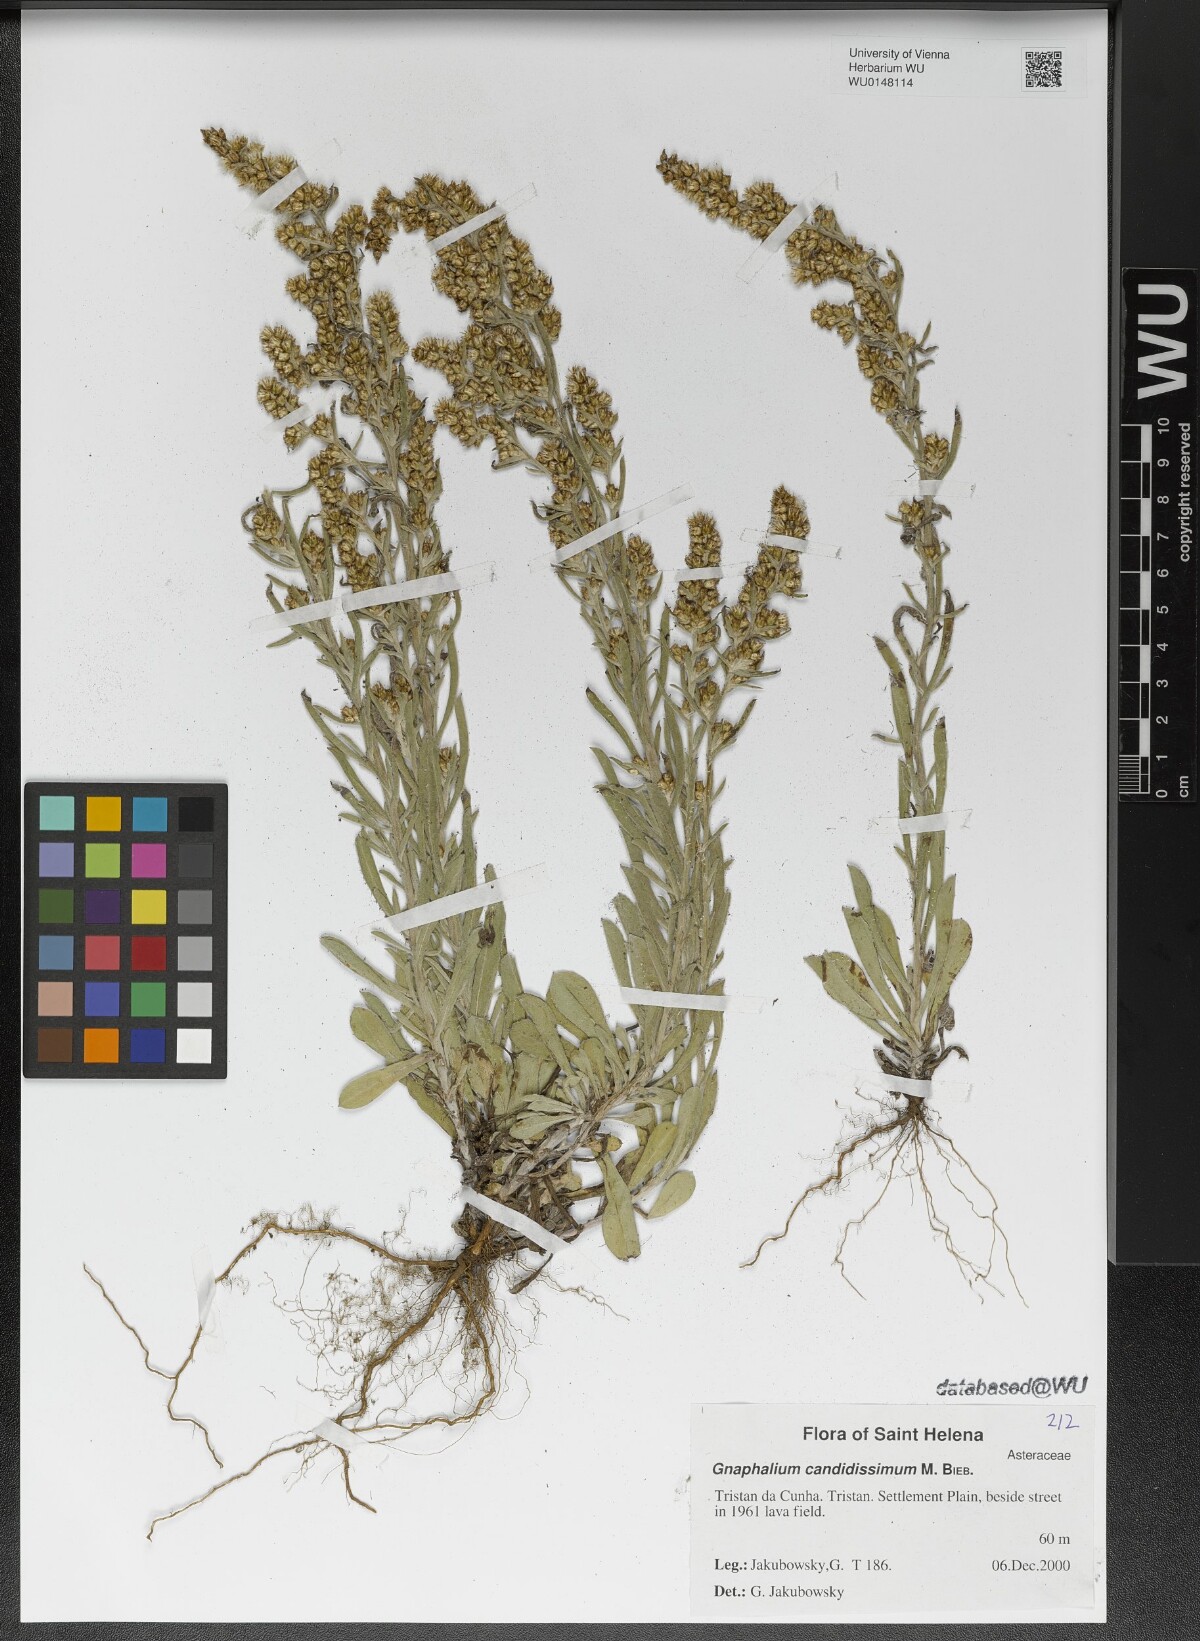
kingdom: Plantae
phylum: Tracheophyta
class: Magnoliopsida
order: Asterales
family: Asteraceae
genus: Cladochaeta
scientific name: Cladochaeta candissima
